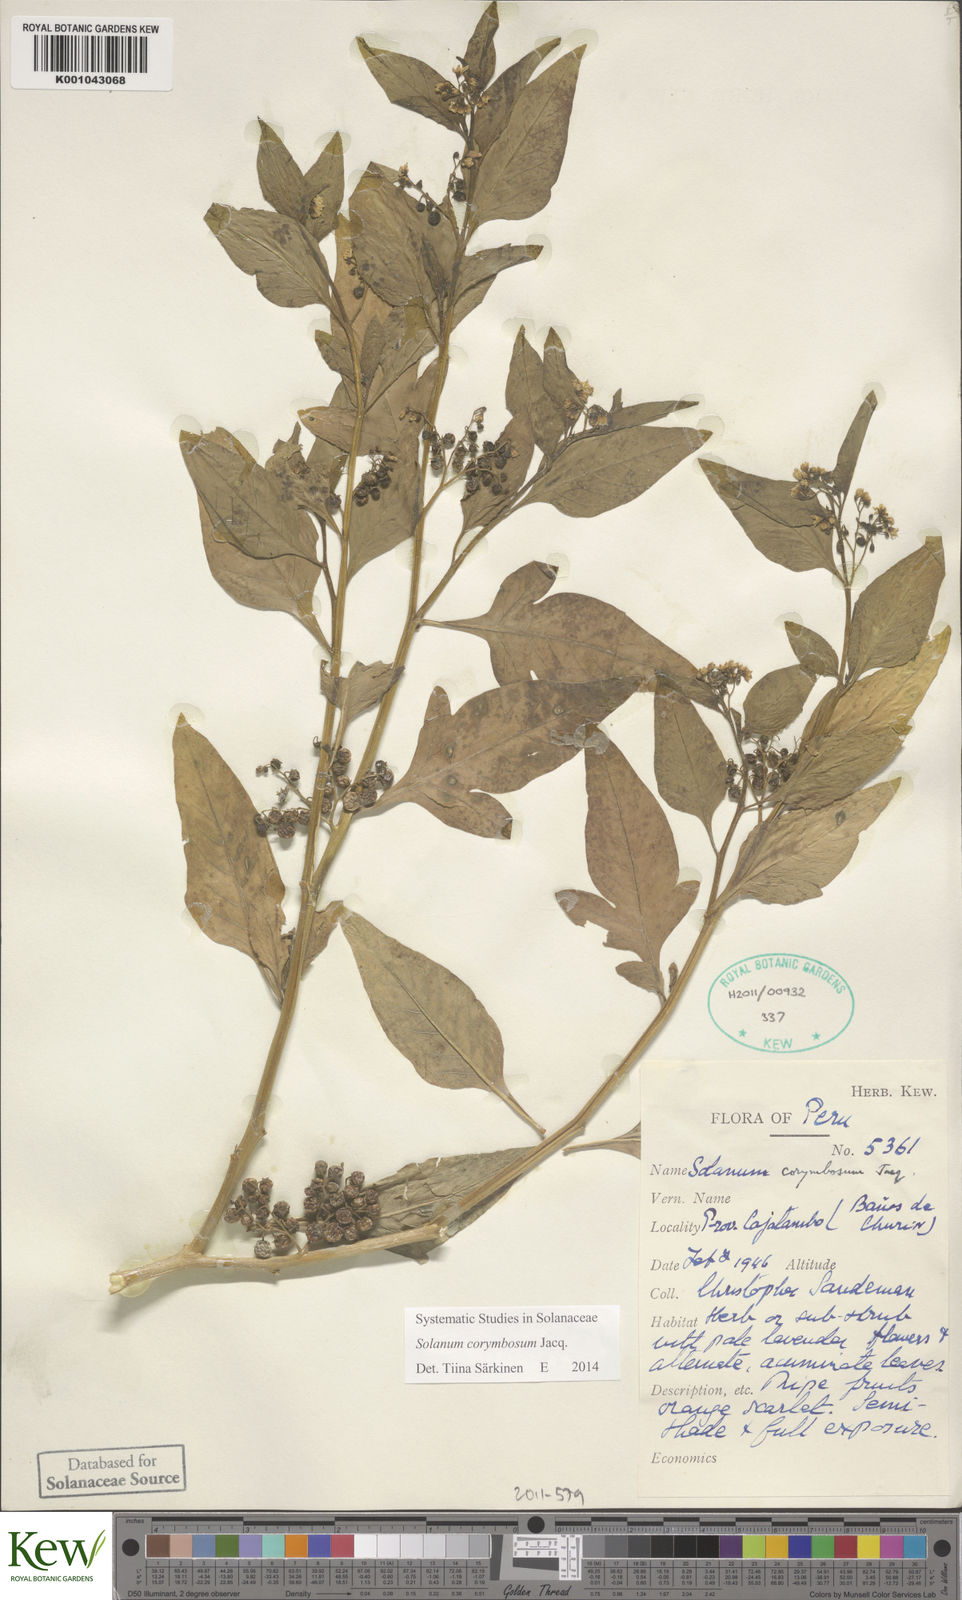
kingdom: Plantae
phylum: Tracheophyta
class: Magnoliopsida
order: Solanales
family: Solanaceae
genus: Solanum
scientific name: Solanum corymbosum
